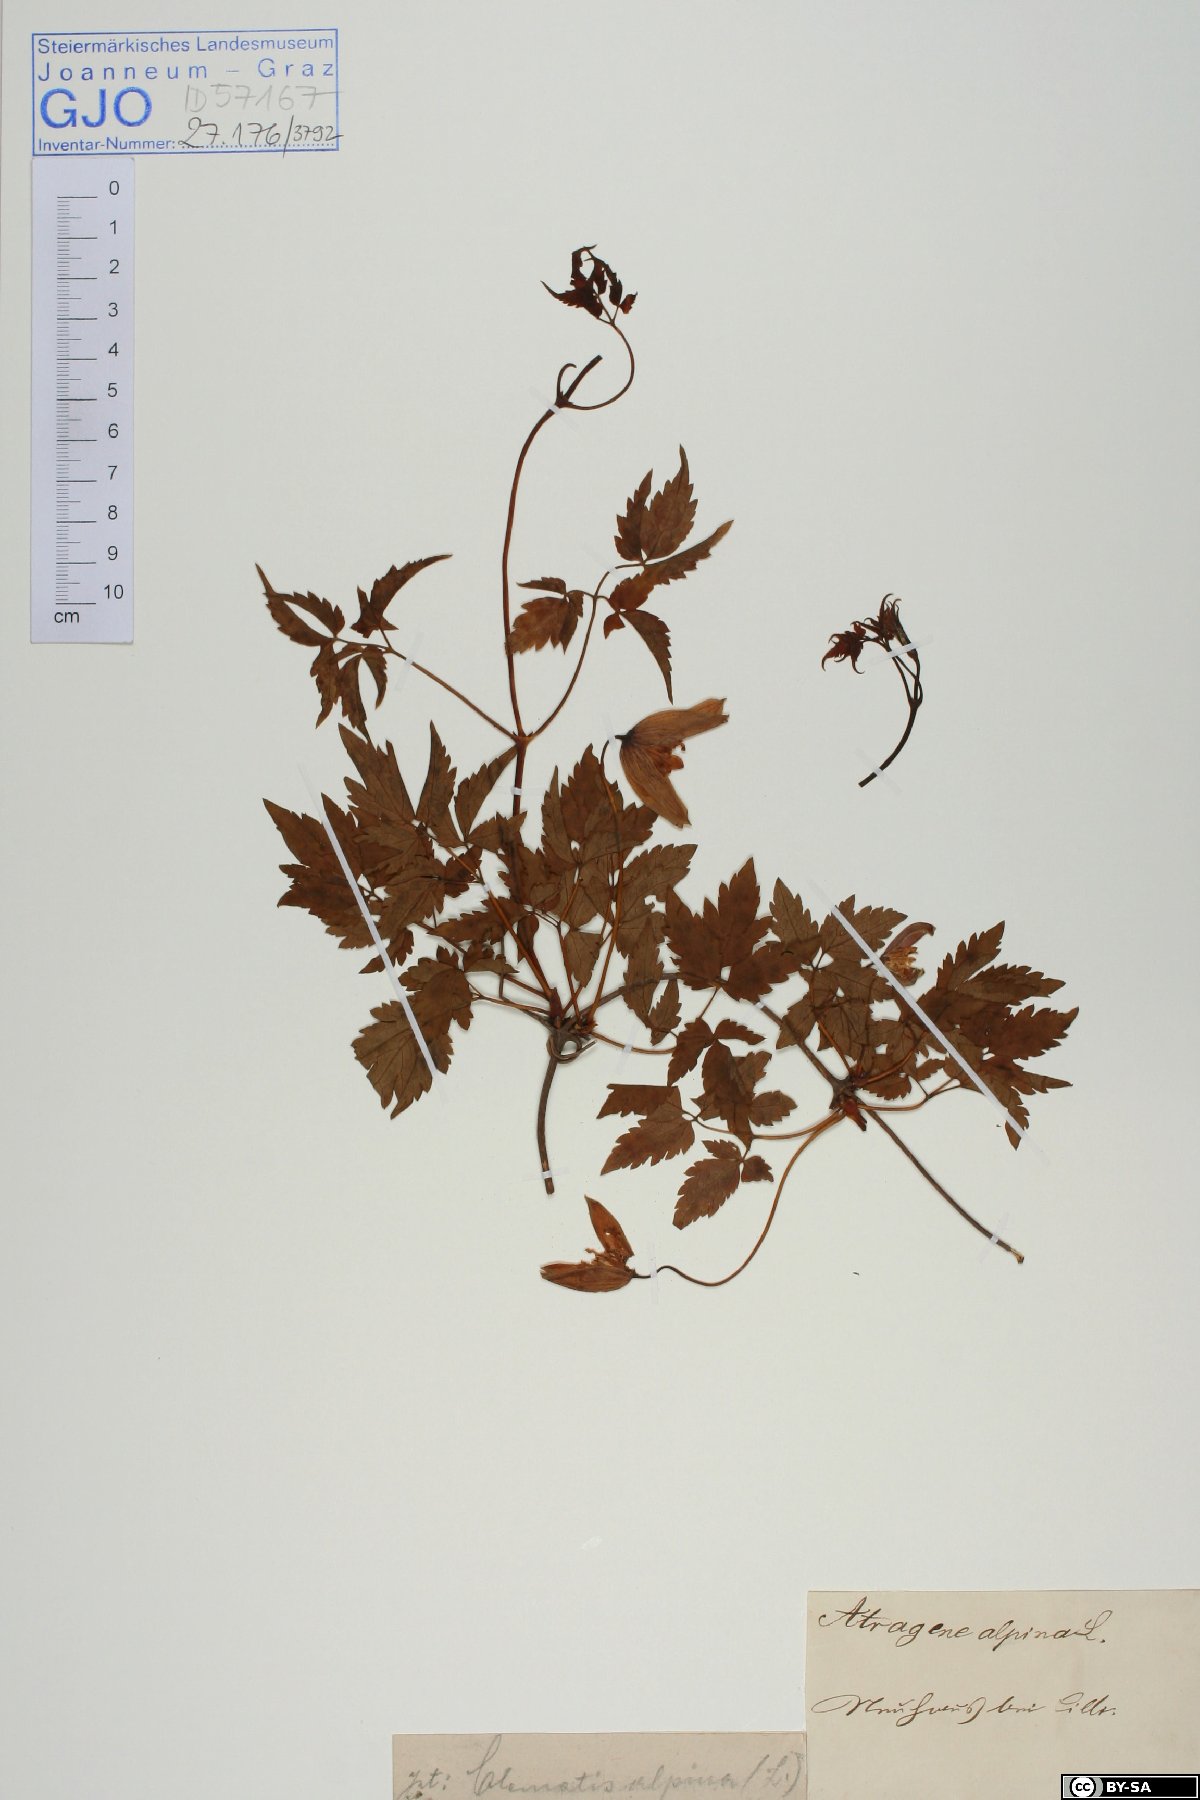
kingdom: Plantae
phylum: Tracheophyta
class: Magnoliopsida
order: Ranunculales
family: Ranunculaceae
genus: Clematis
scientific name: Clematis alpina
